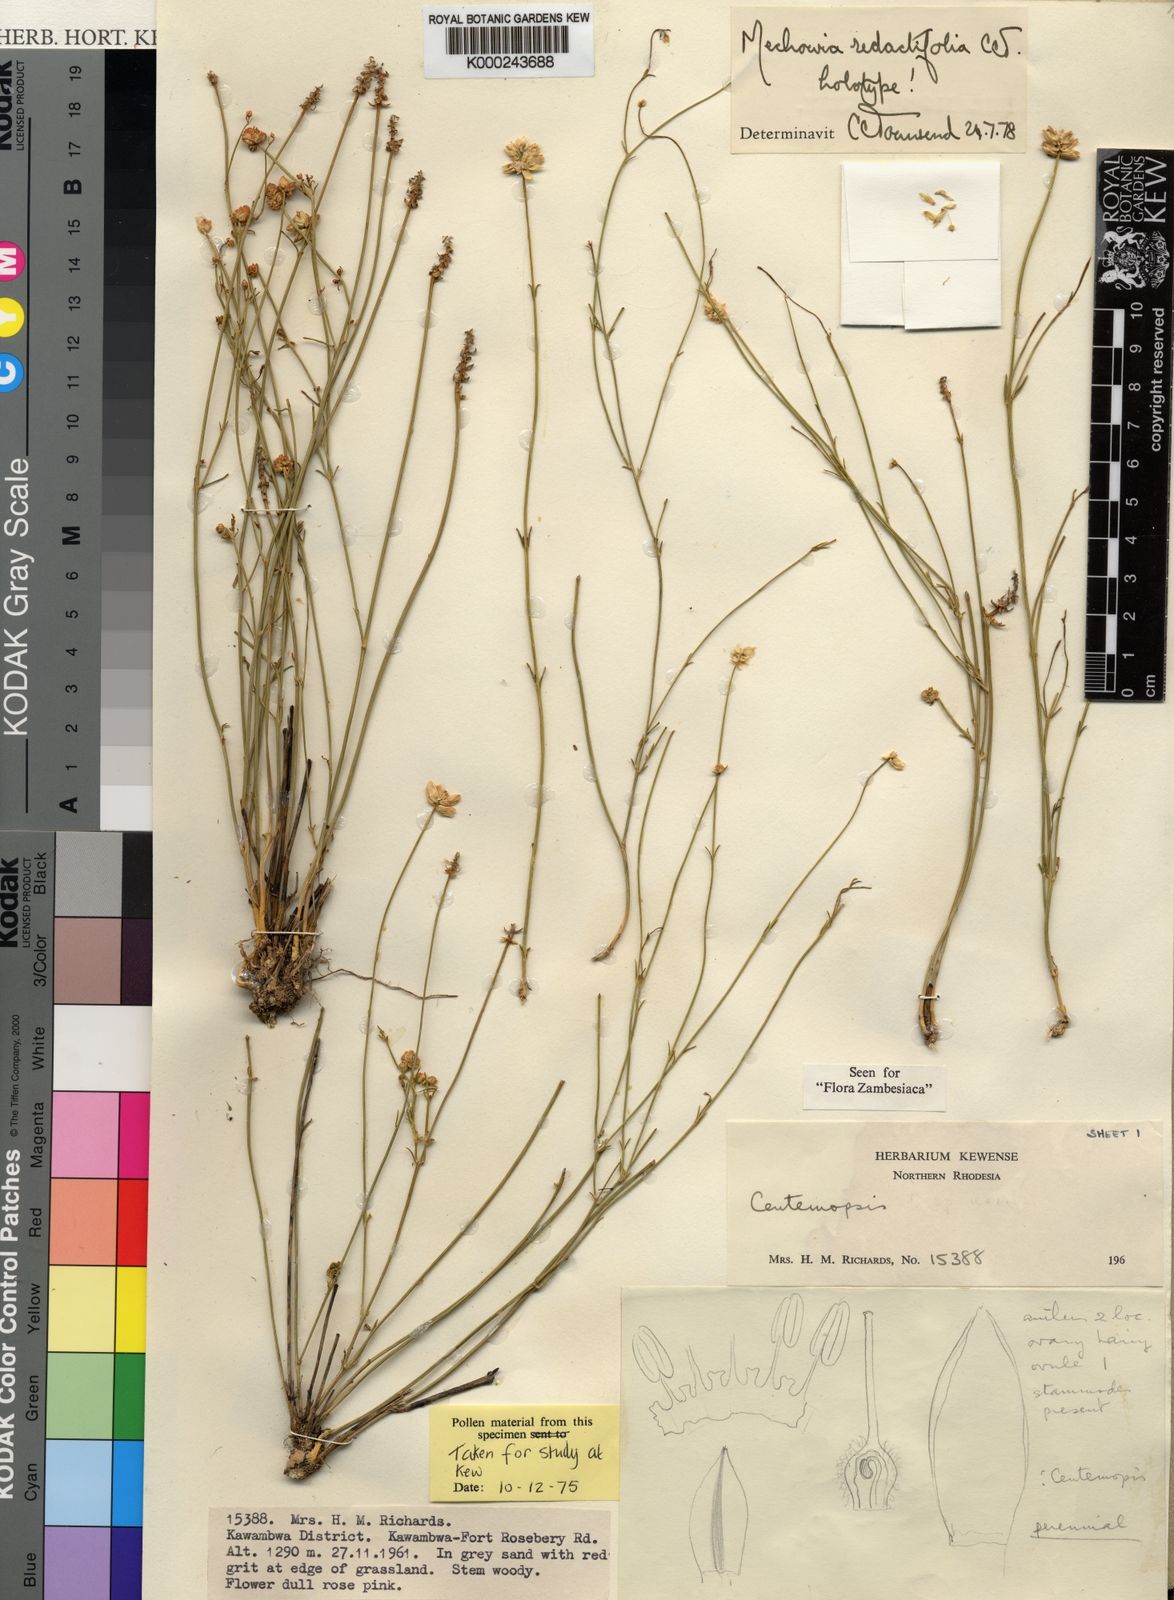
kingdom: Plantae
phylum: Tracheophyta
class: Magnoliopsida
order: Caryophyllales
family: Amaranthaceae
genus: Mechowia
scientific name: Mechowia redactifolia
